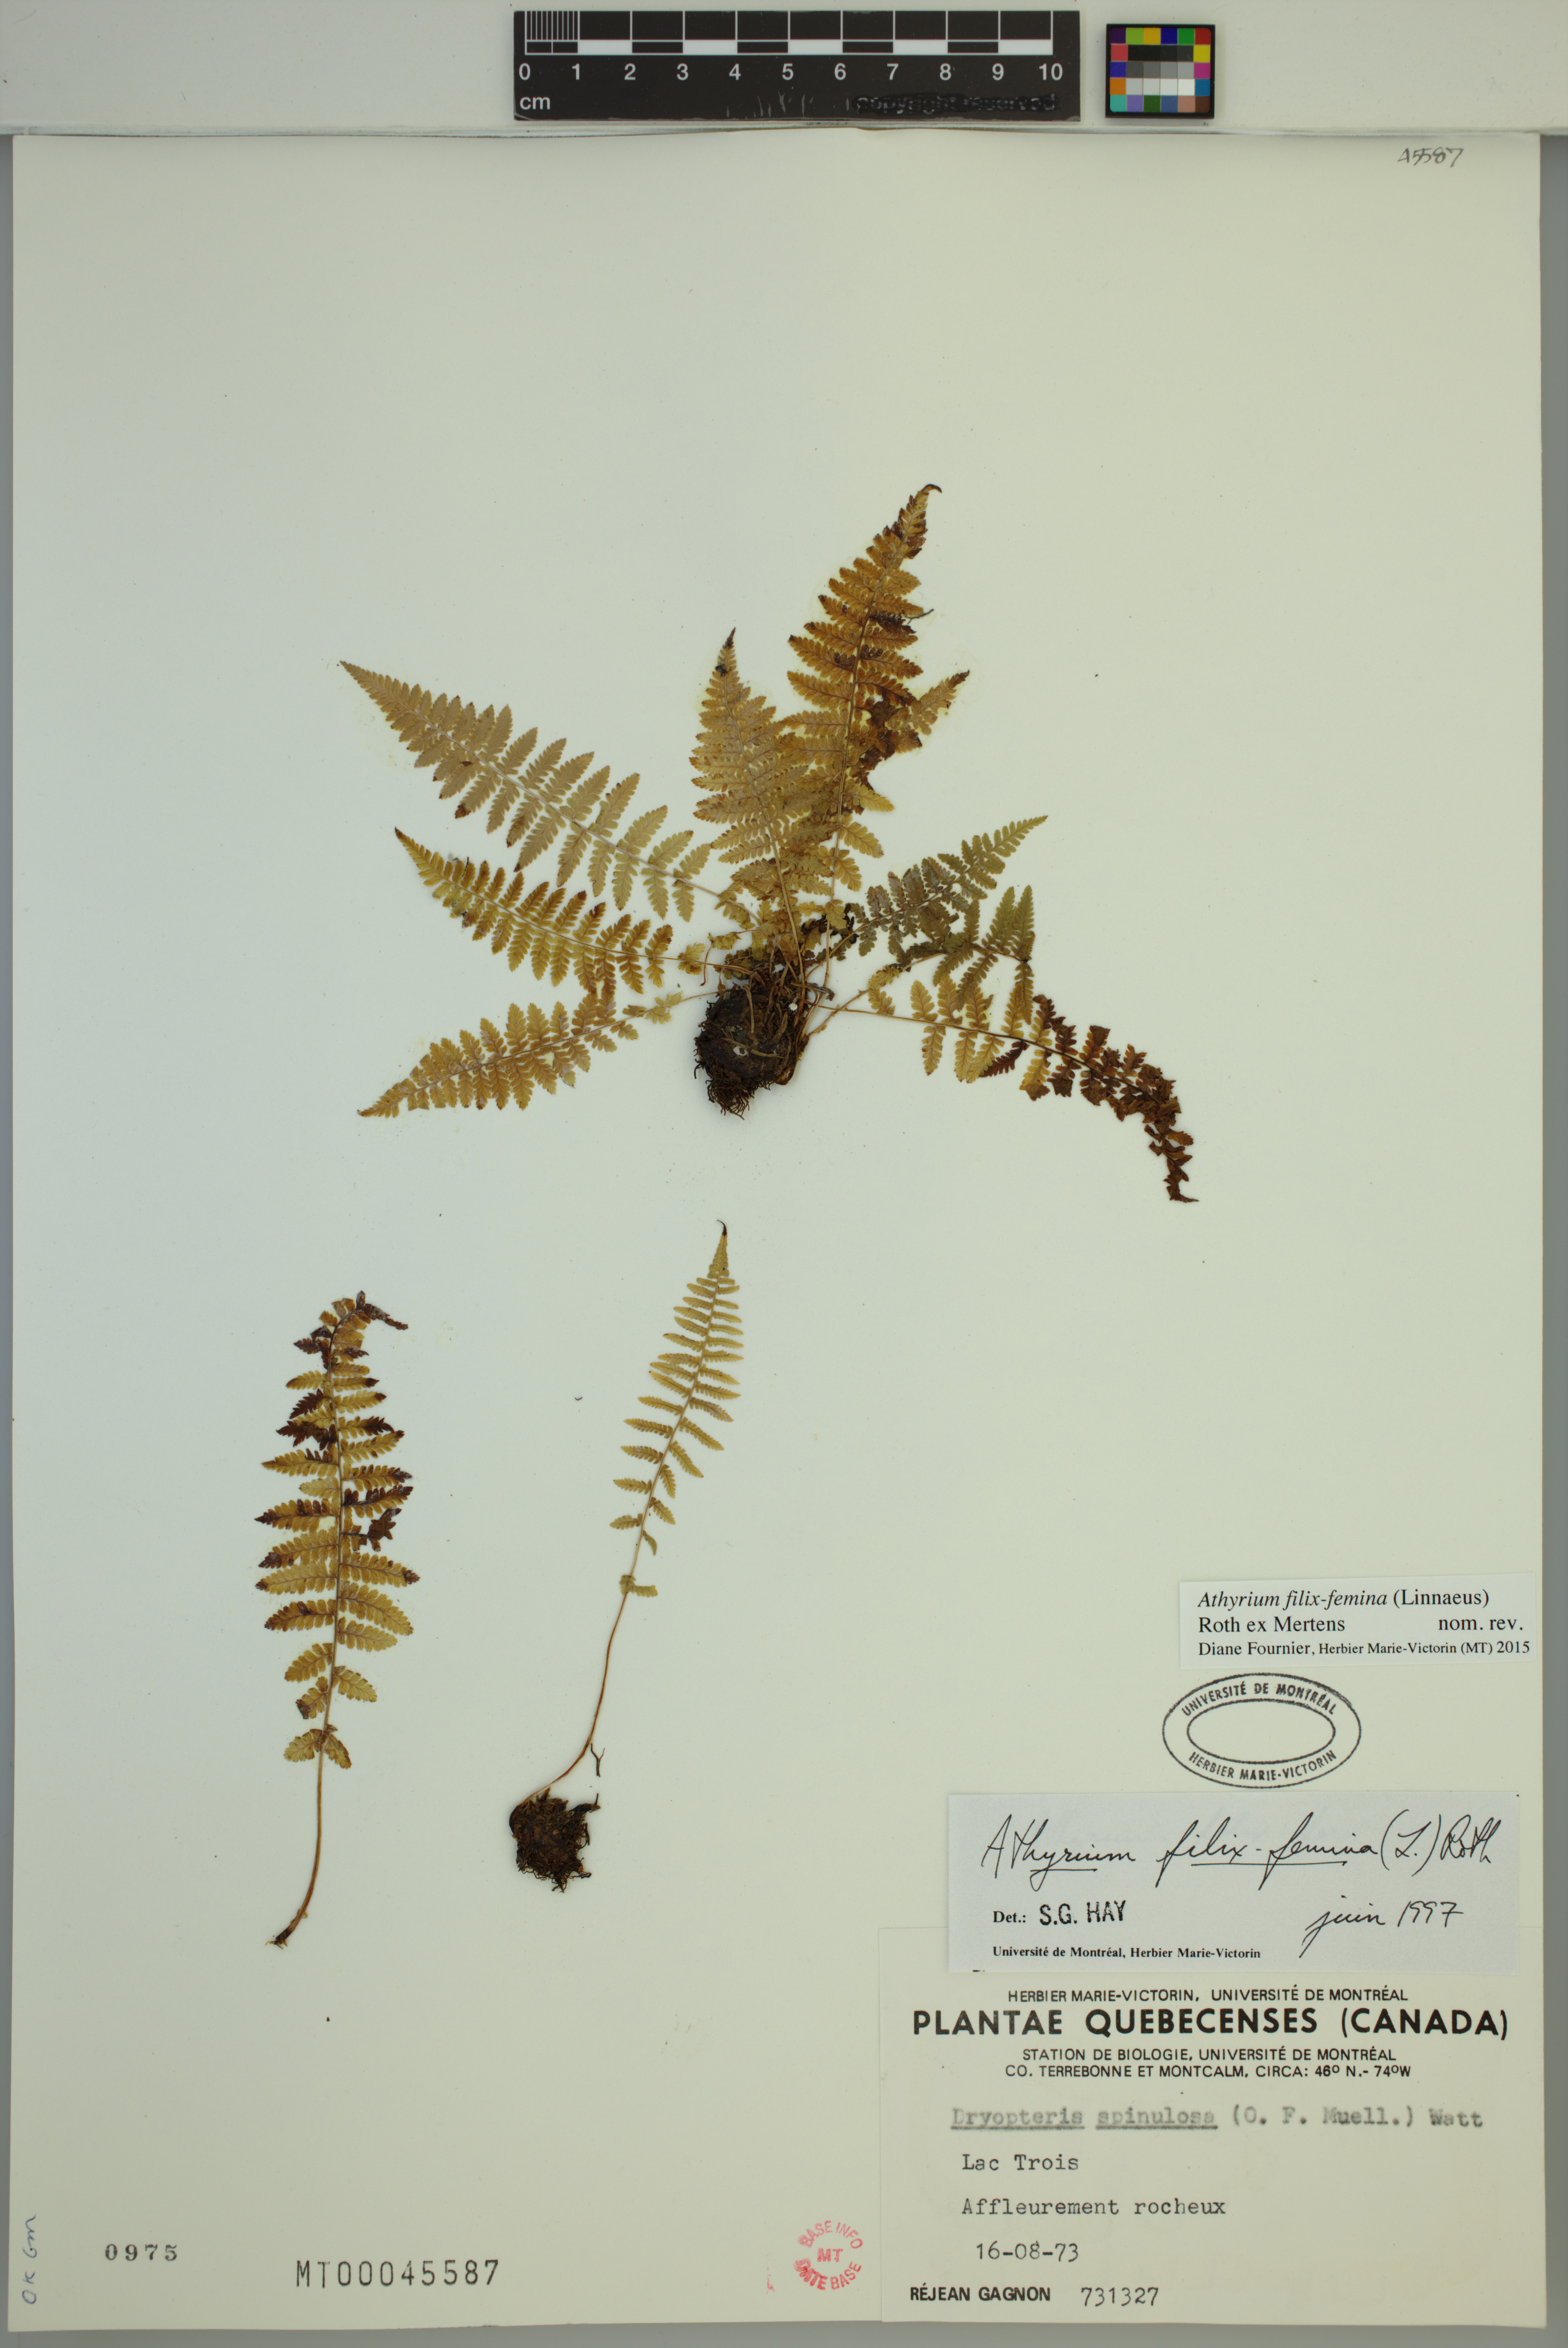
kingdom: Plantae
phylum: Tracheophyta
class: Polypodiopsida
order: Polypodiales
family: Athyriaceae
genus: Athyrium
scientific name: Athyrium filix-femina
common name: Lady fern
